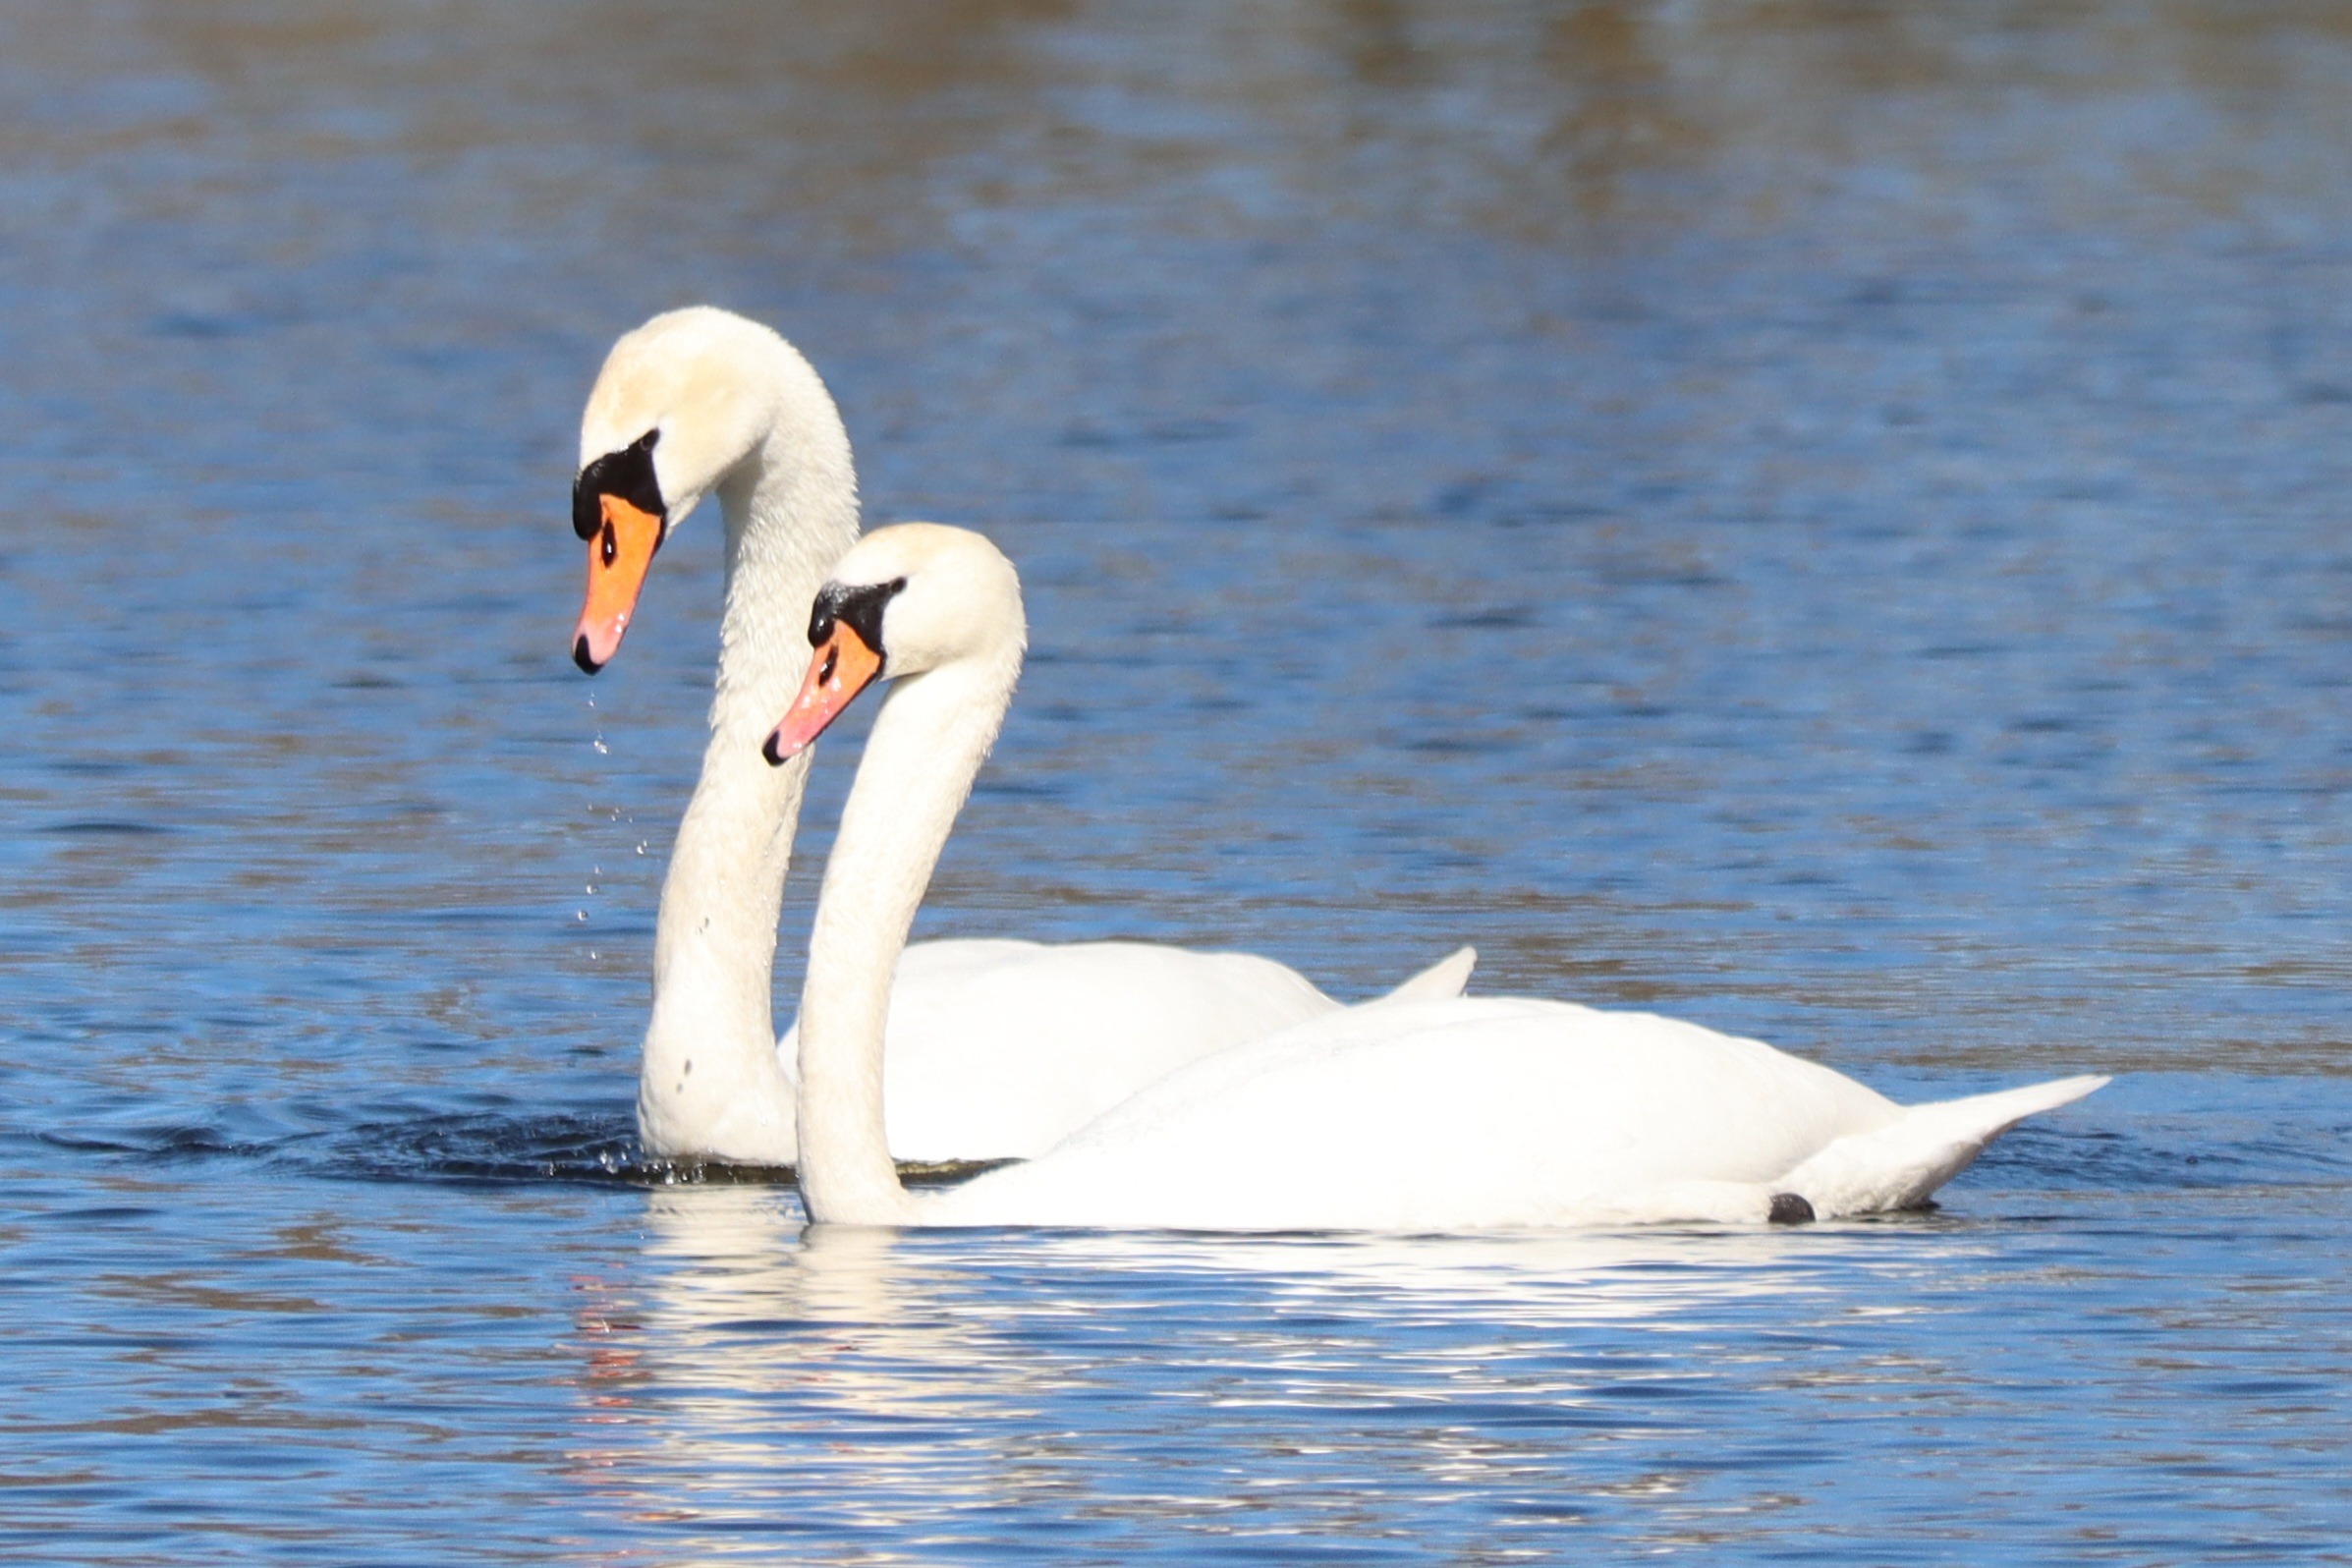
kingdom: Animalia
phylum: Chordata
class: Aves
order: Anseriformes
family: Anatidae
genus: Cygnus
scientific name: Cygnus olor
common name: Knopsvane
